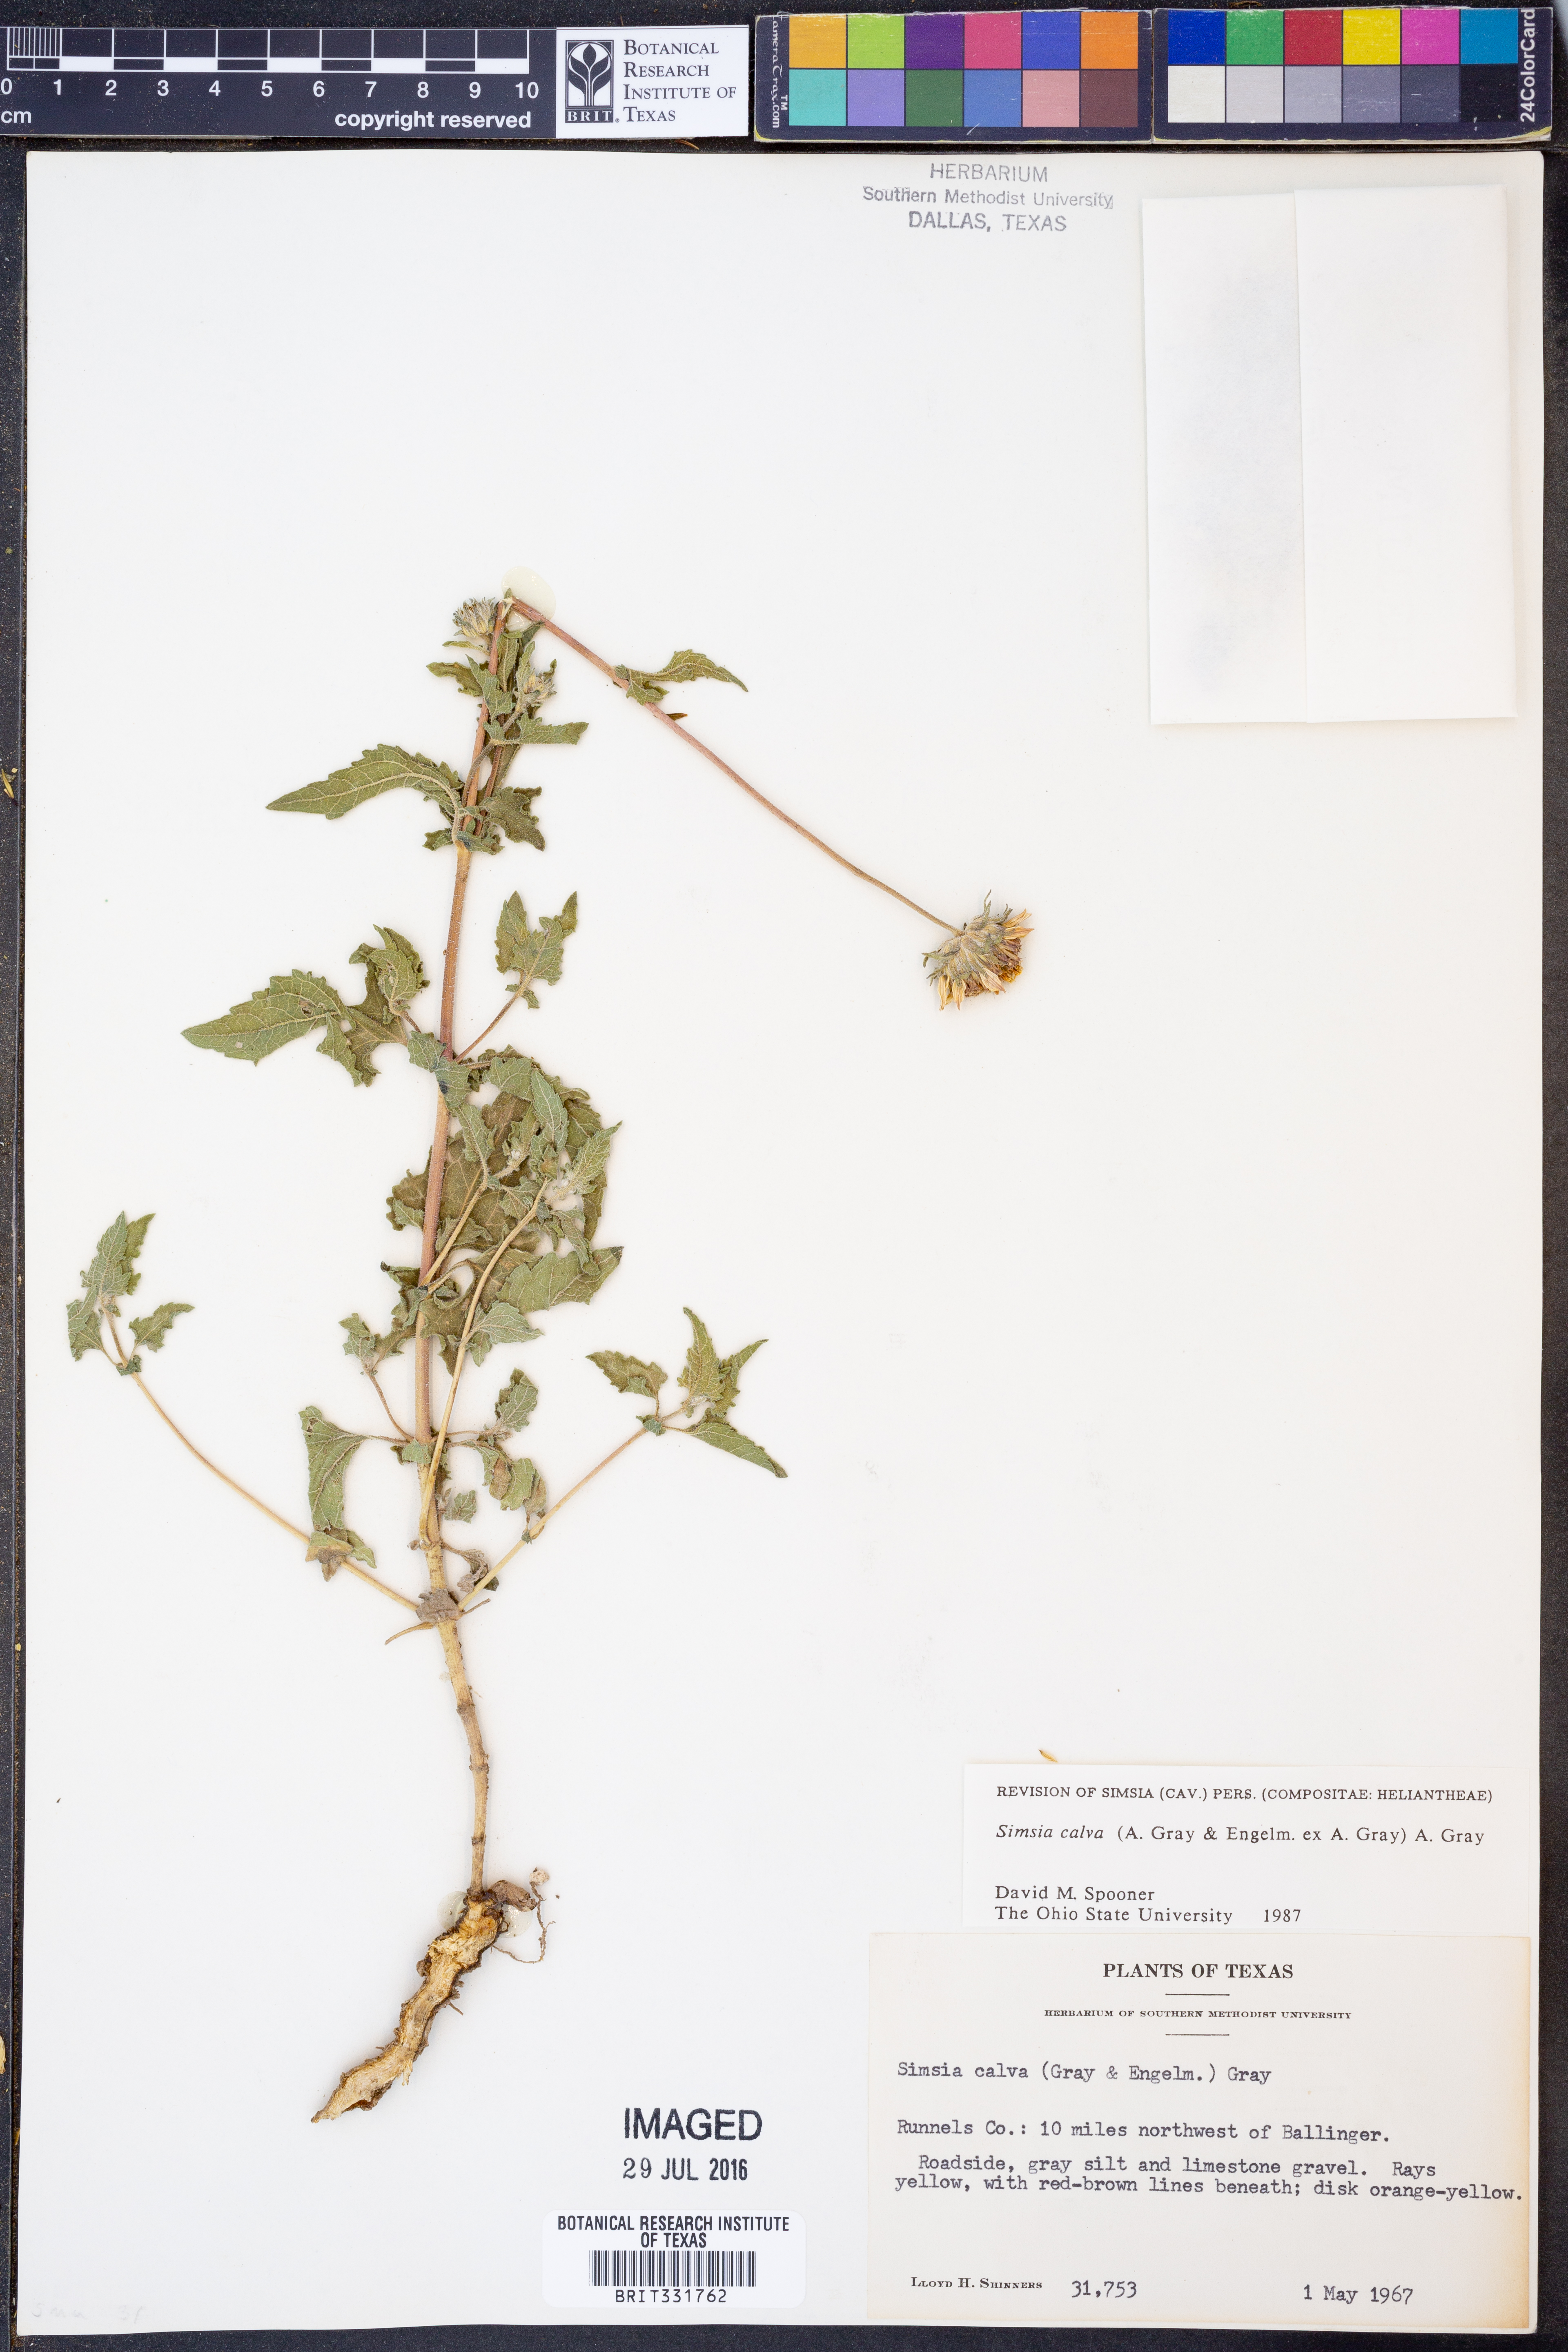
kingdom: Plantae
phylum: Tracheophyta
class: Magnoliopsida
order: Asterales
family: Asteraceae
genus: Simsia
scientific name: Simsia calva
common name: Awnless bush-sunflower
